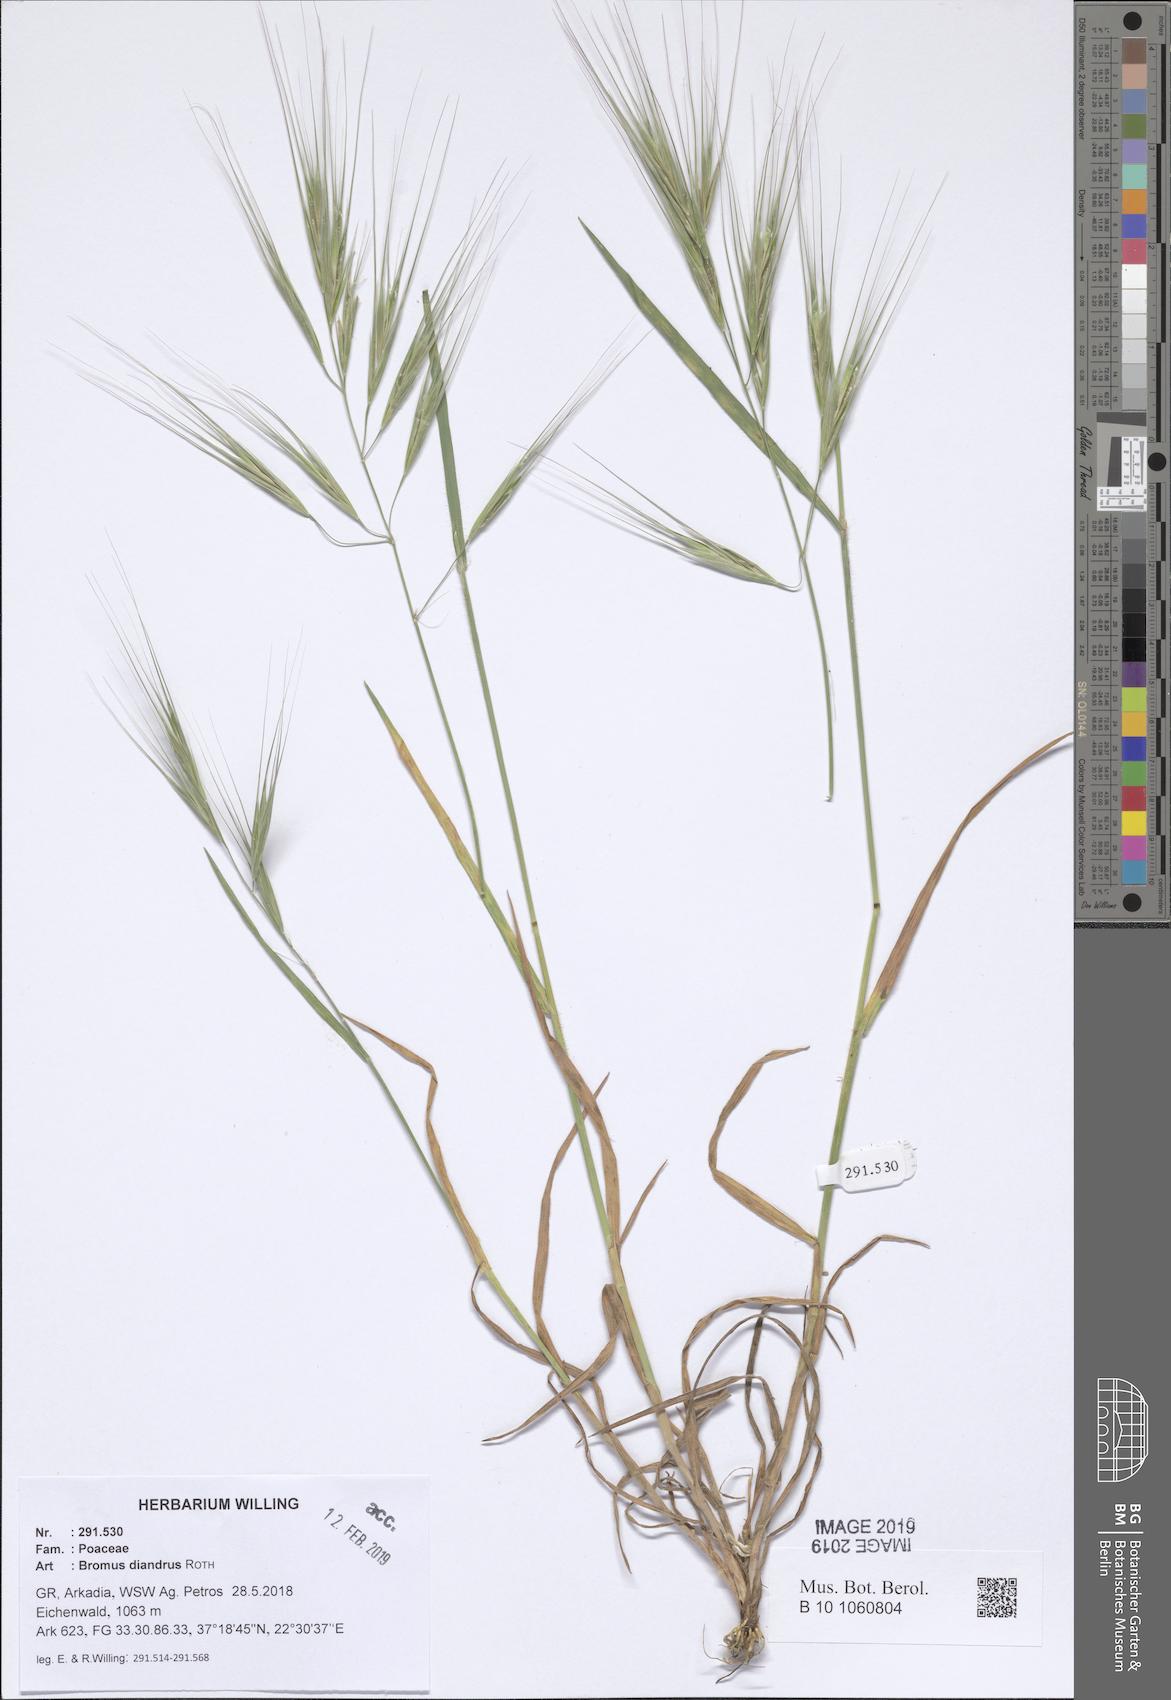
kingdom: Plantae
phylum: Tracheophyta
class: Liliopsida
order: Poales
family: Poaceae
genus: Bromus
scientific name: Bromus diandrus
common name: Ripgut brome
